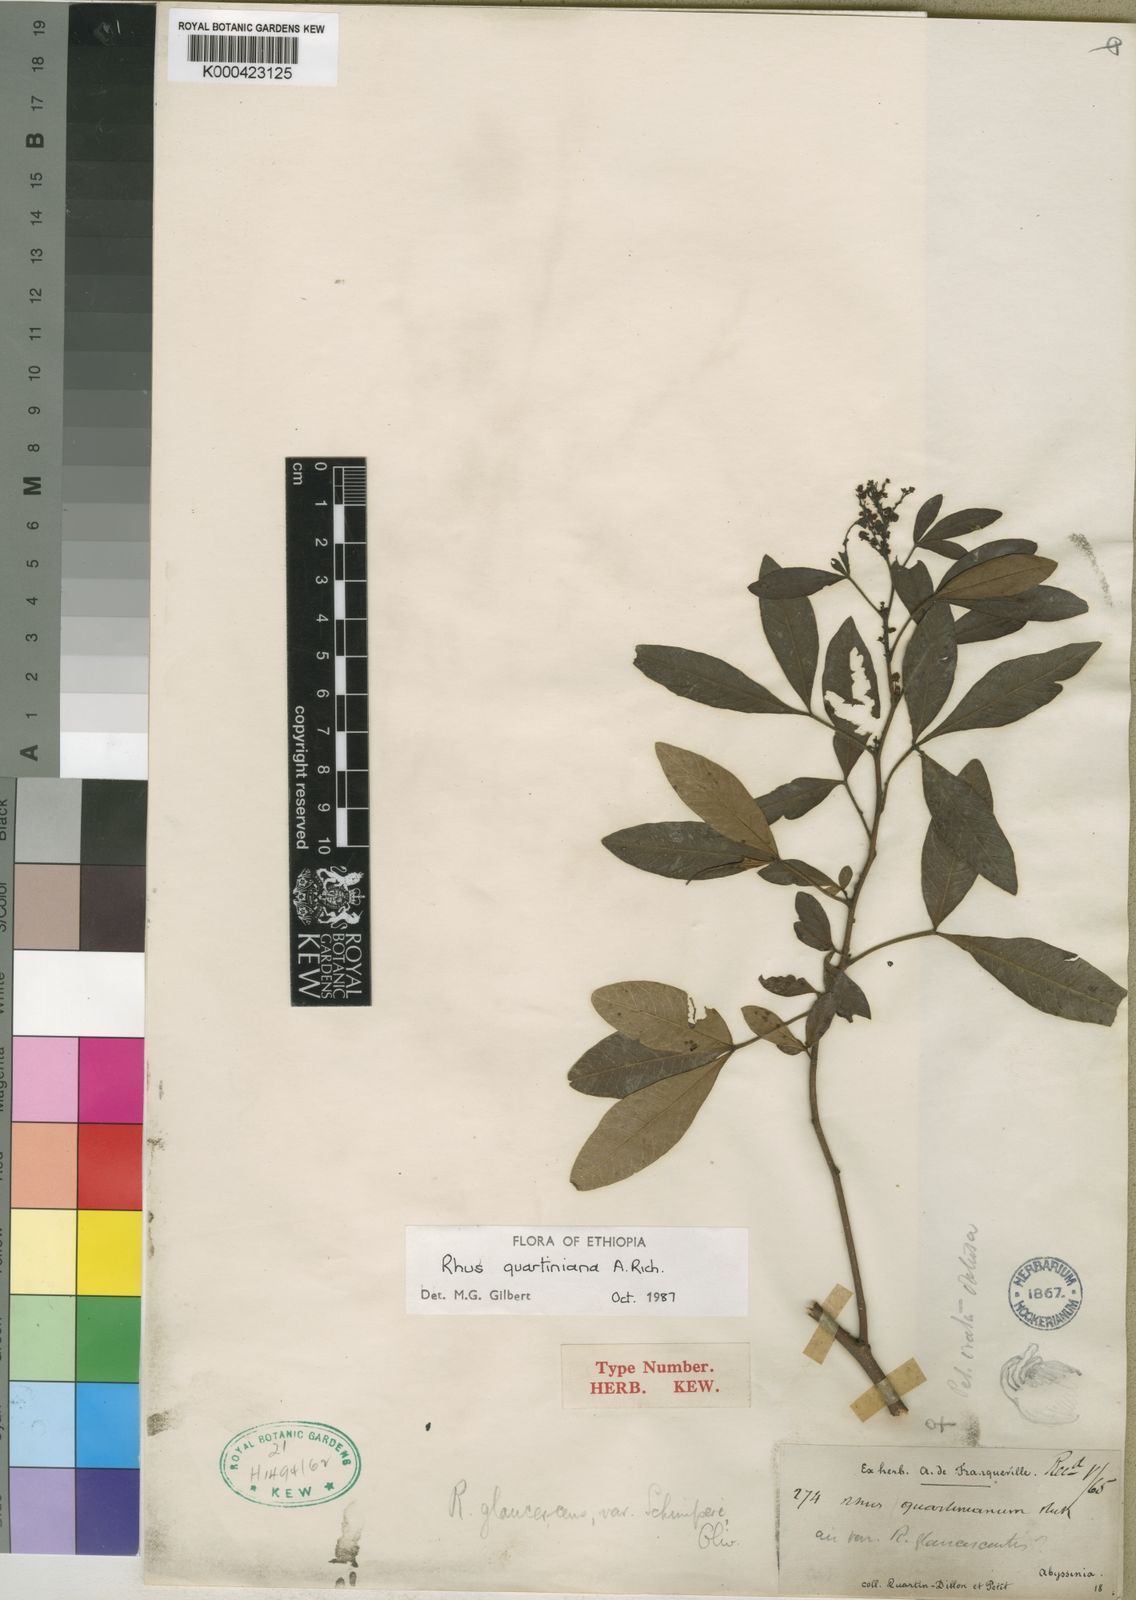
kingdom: Plantae
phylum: Tracheophyta
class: Magnoliopsida
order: Sapindales
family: Anacardiaceae
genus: Searsia
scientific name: Searsia quartiniana
